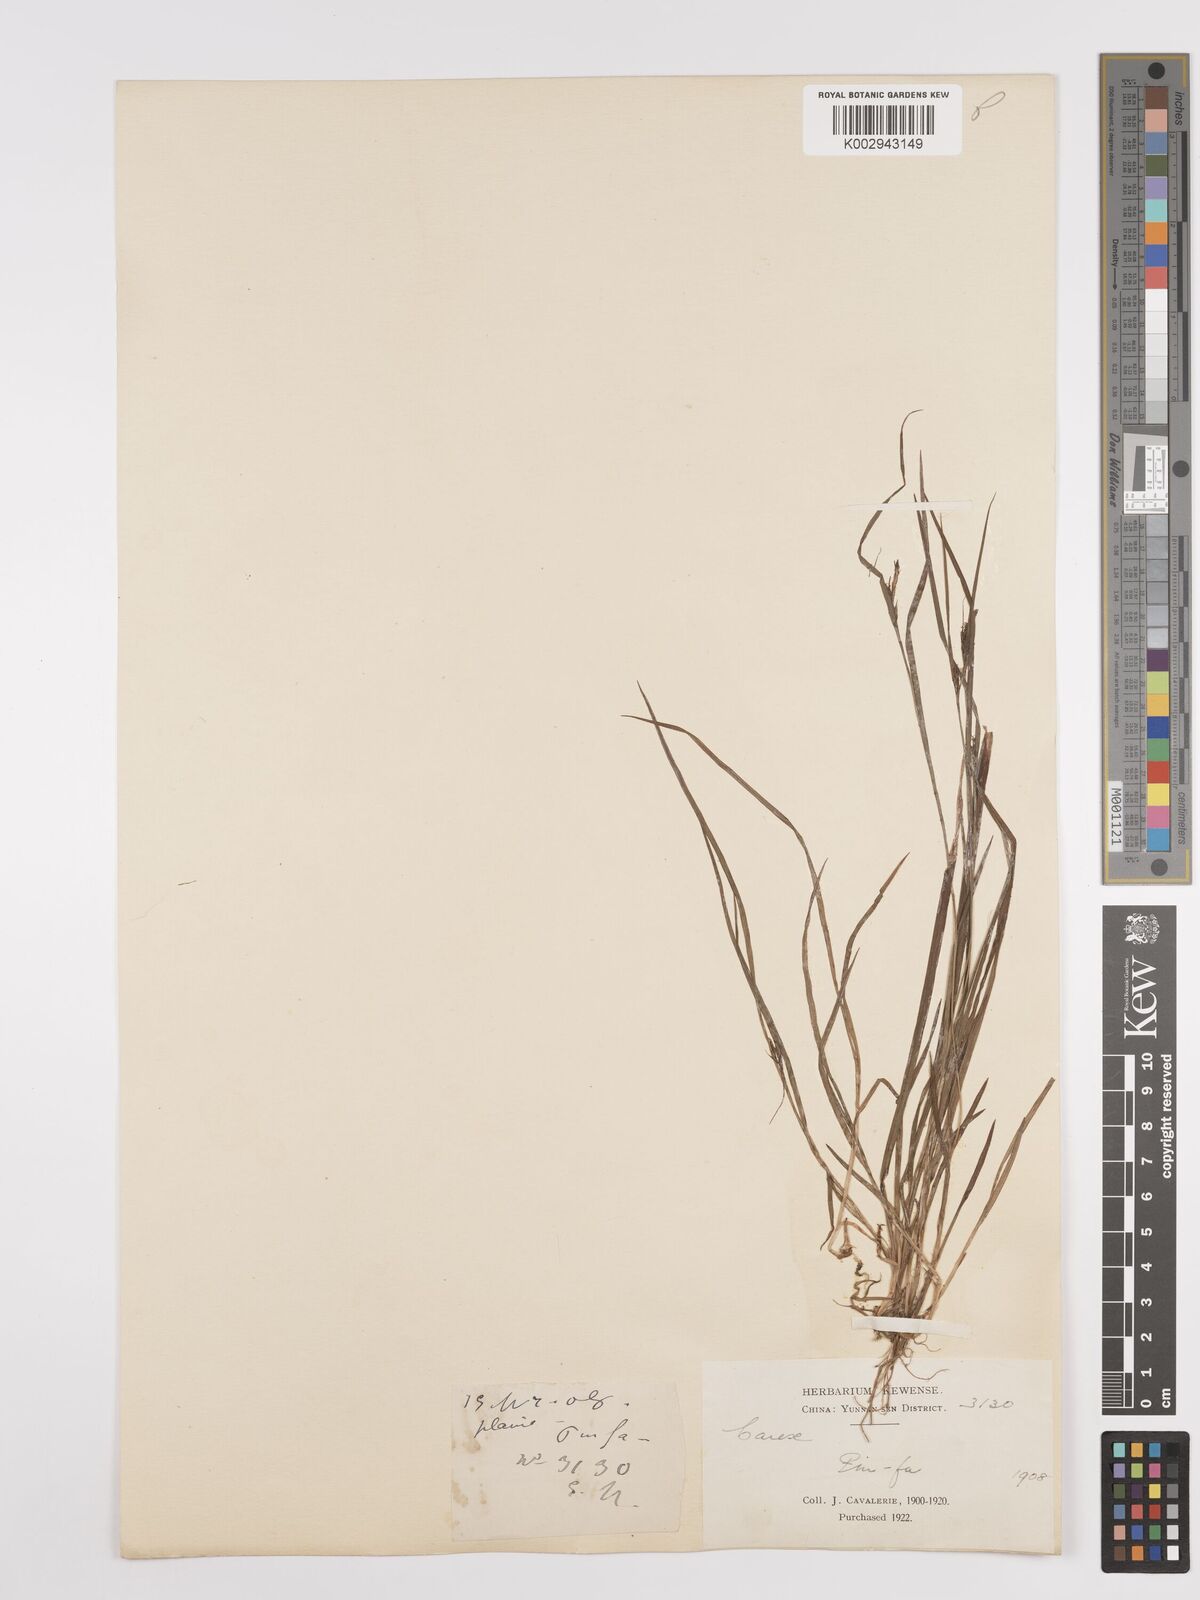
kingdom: Plantae
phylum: Tracheophyta
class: Liliopsida
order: Poales
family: Cyperaceae
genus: Carex
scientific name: Carex
